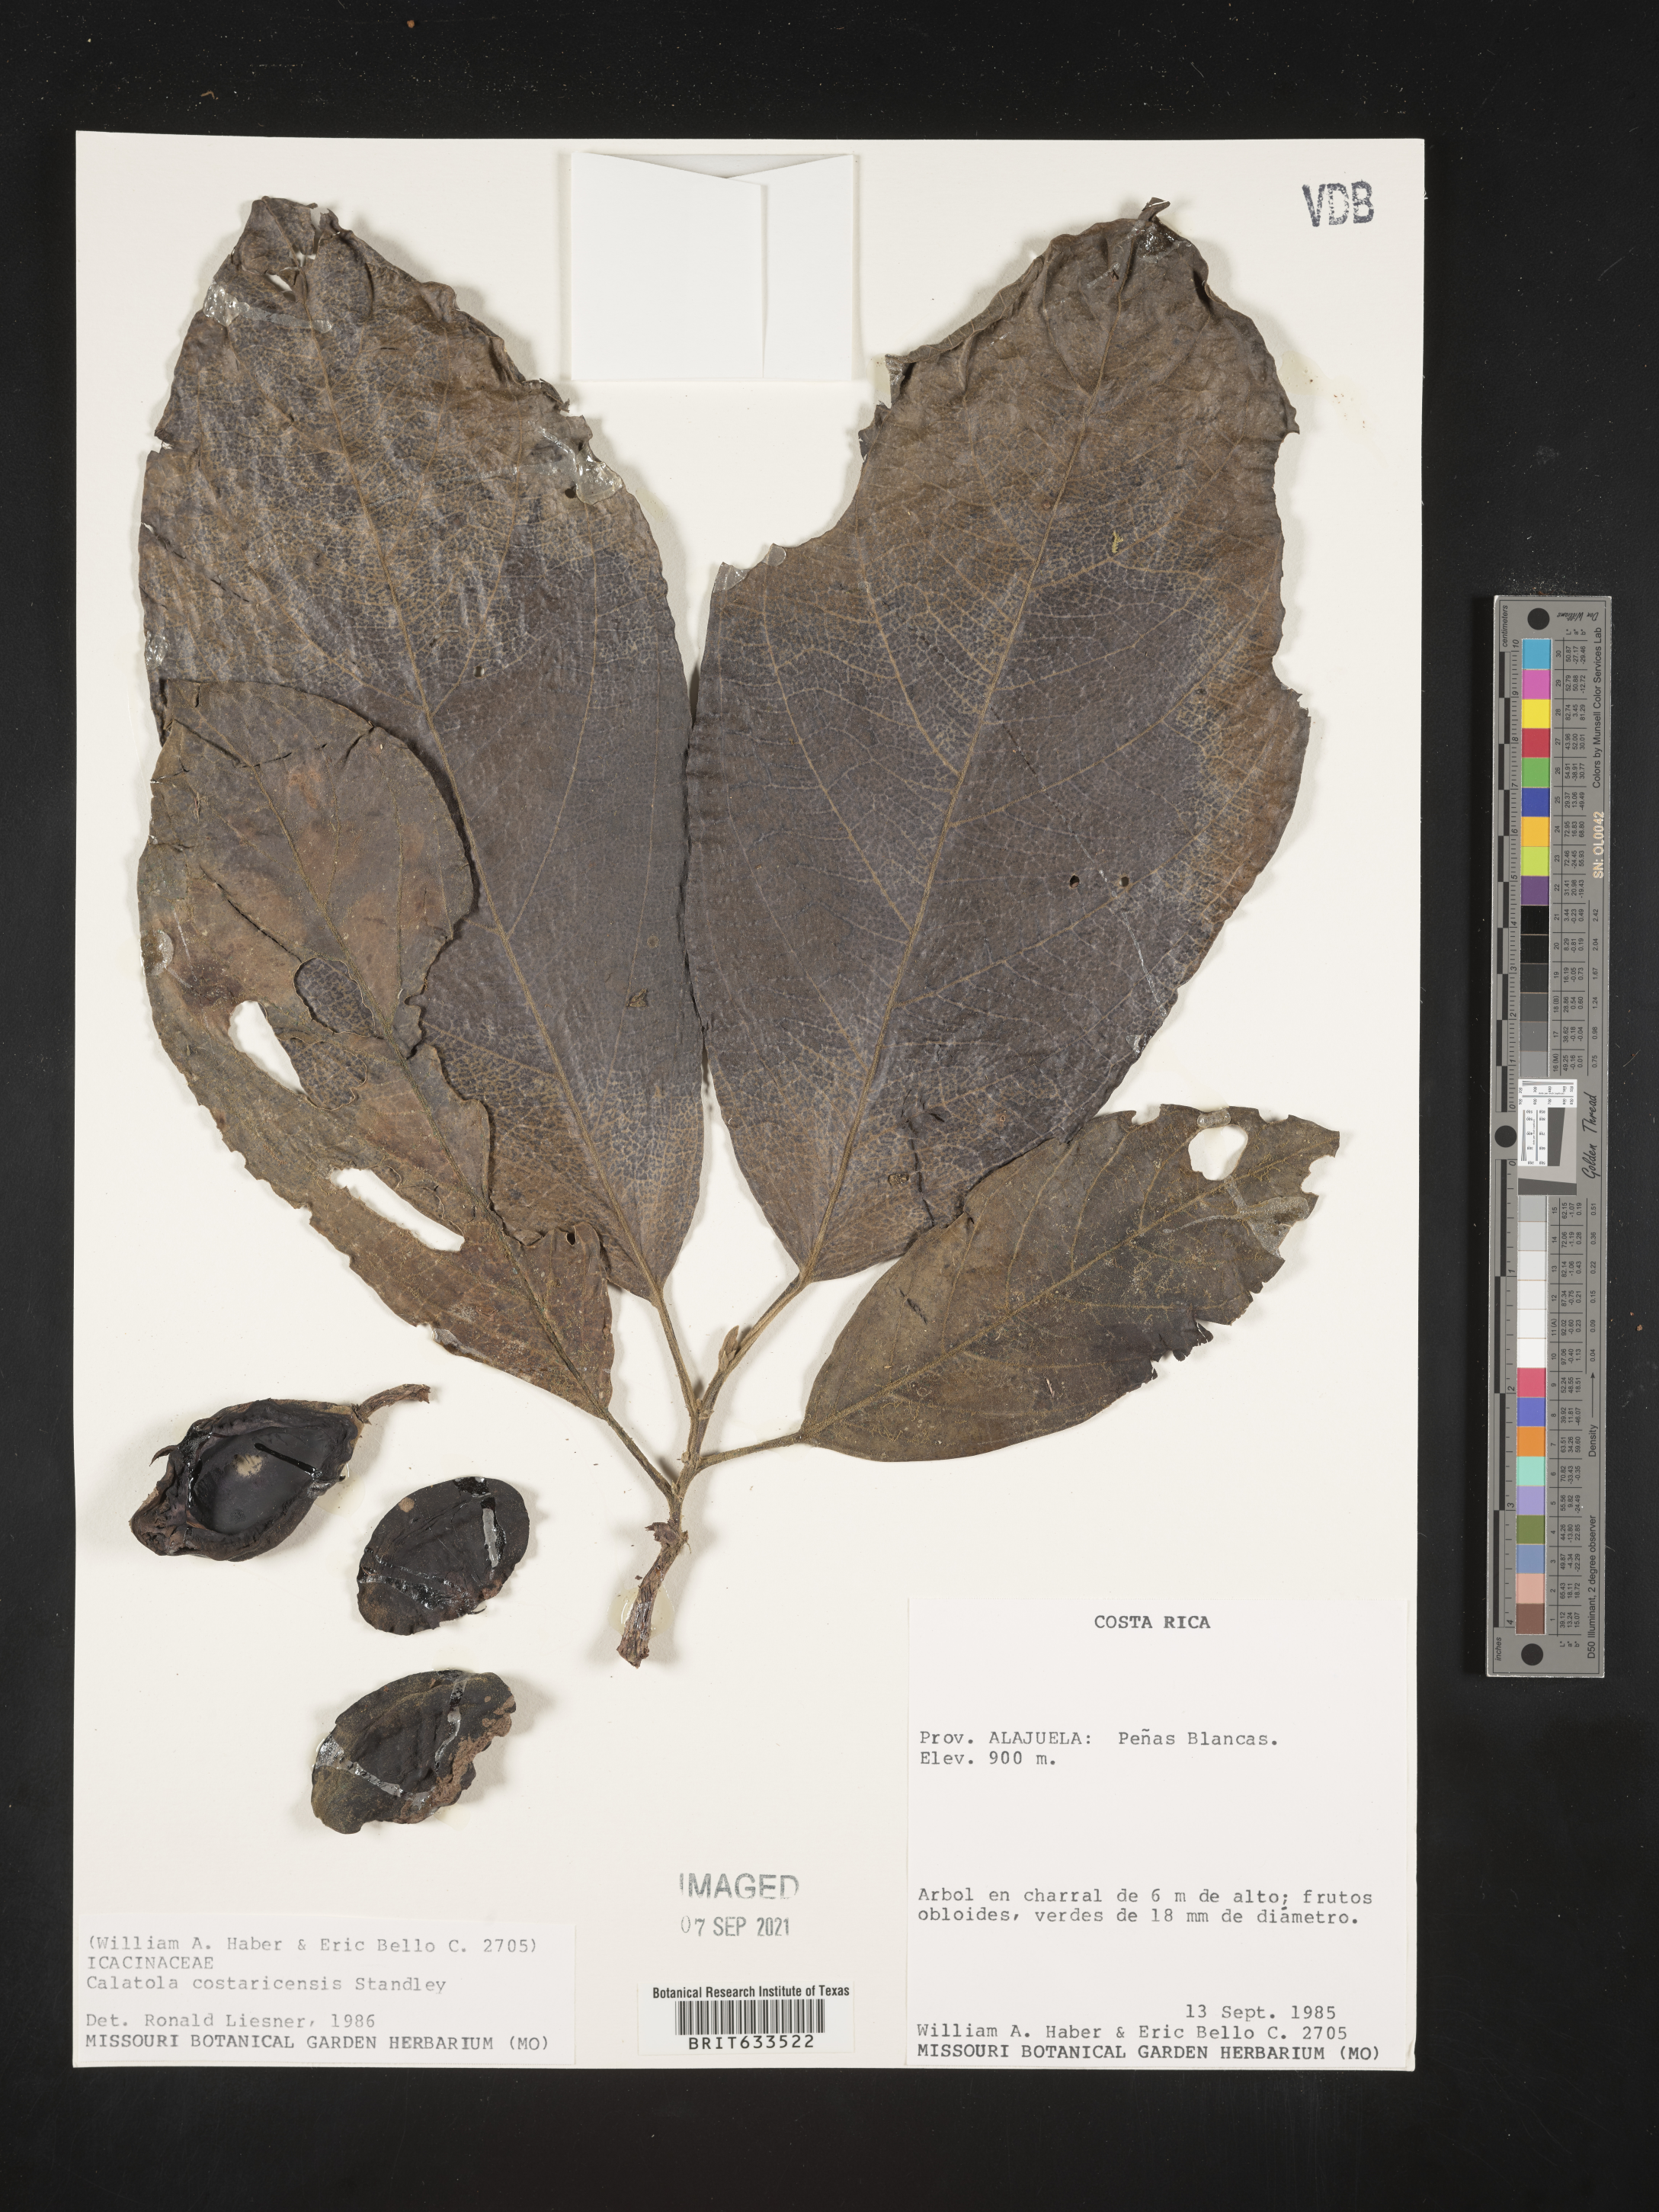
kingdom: Plantae
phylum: Tracheophyta
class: Magnoliopsida
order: Icacinales
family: Icacinaceae
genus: Calatola
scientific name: Calatola
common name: Calatola
